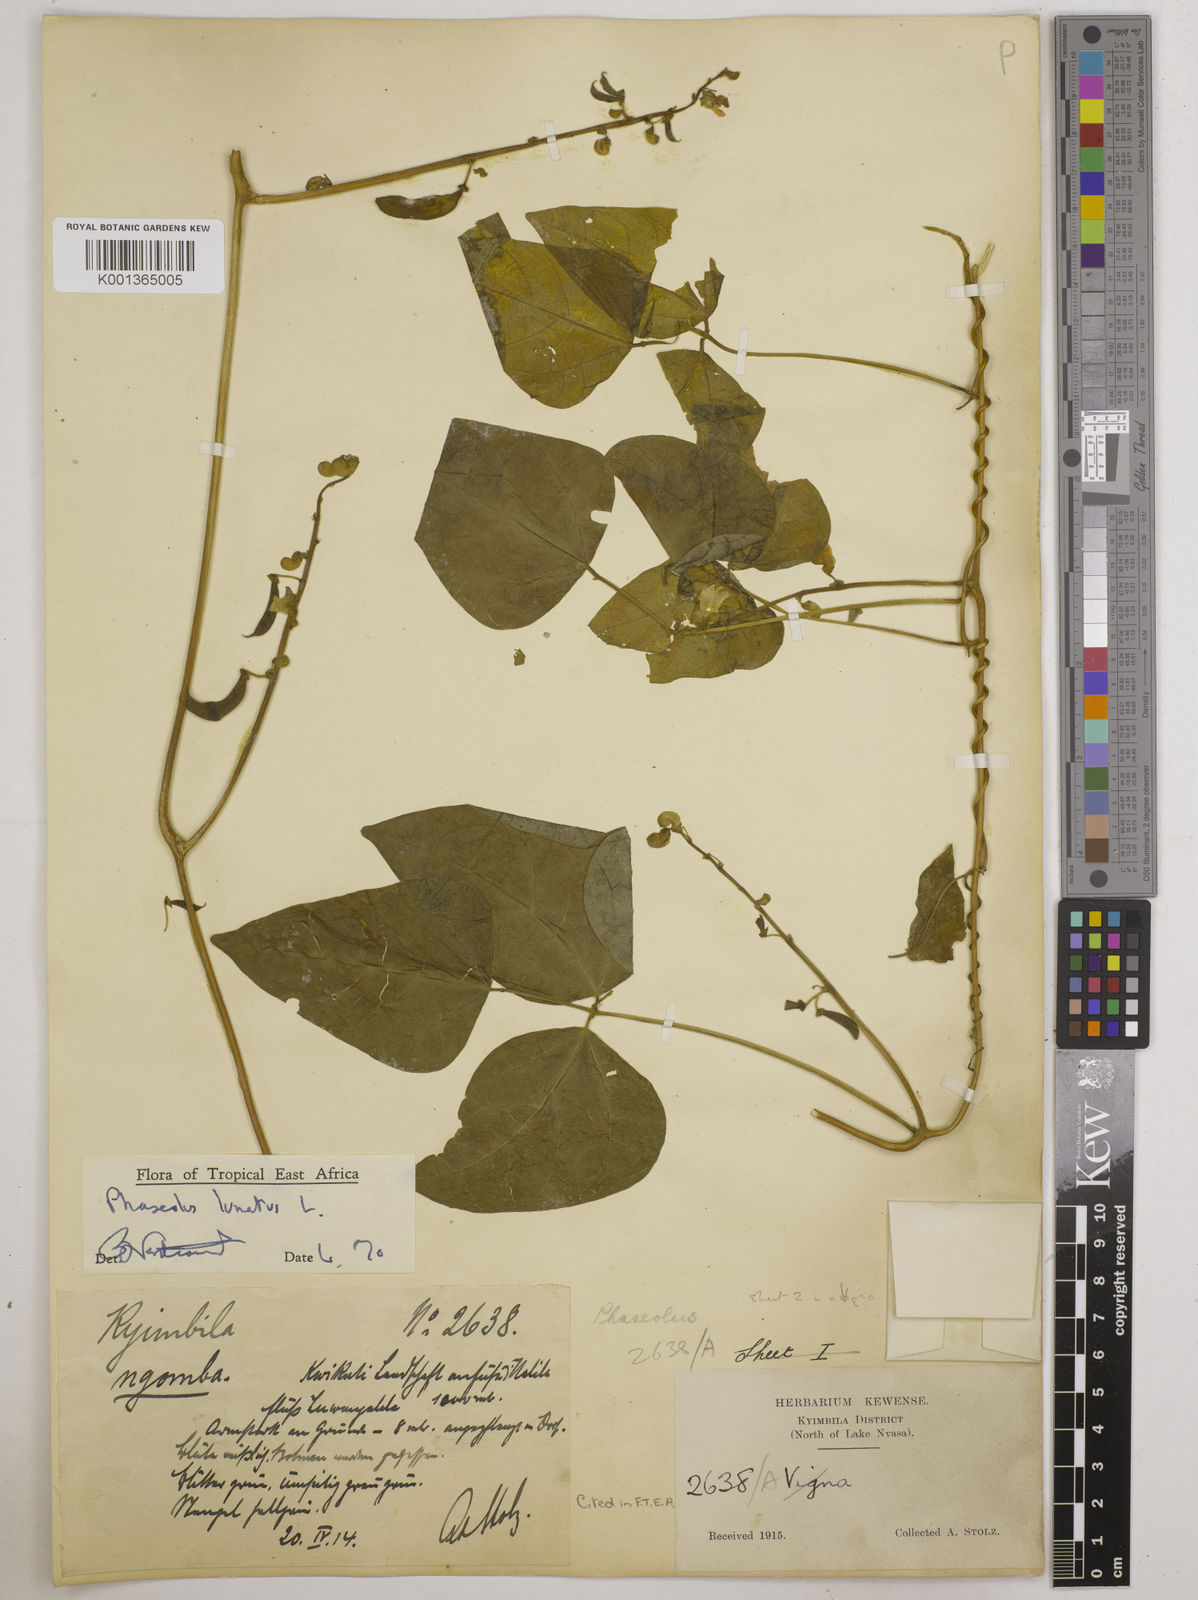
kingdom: Plantae
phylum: Tracheophyta
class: Magnoliopsida
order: Fabales
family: Fabaceae
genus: Phaseolus
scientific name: Phaseolus lunatus
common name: Sieva bean
